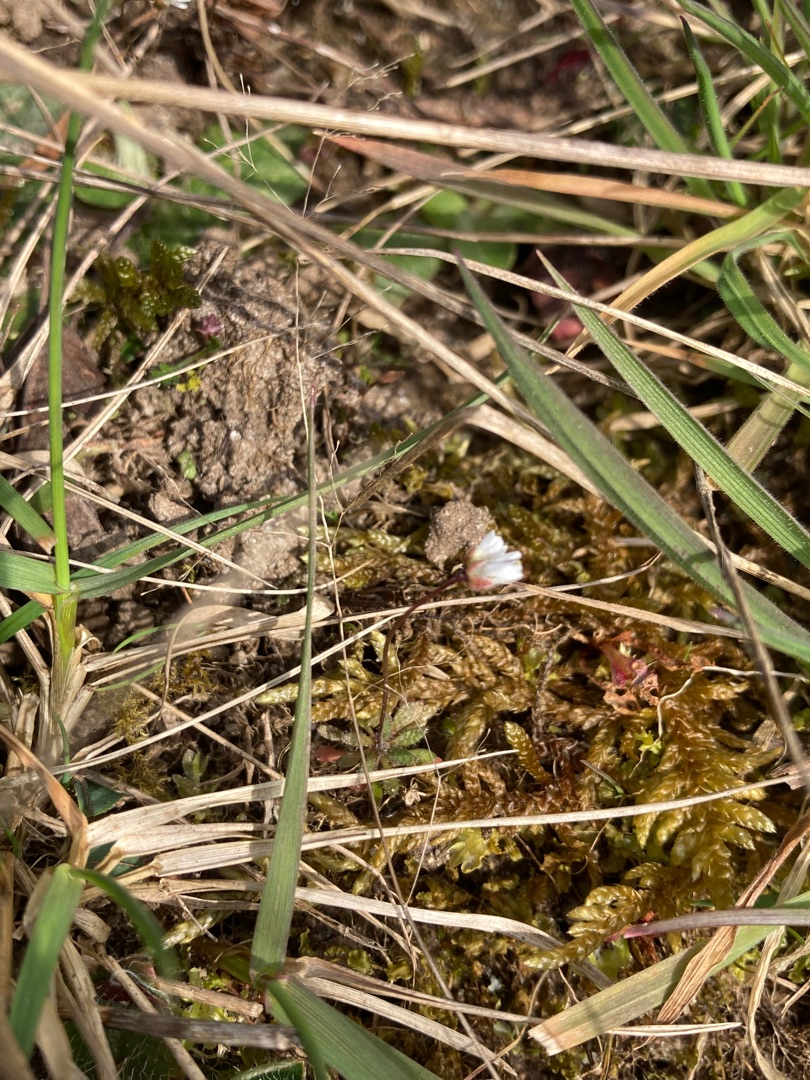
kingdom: Plantae
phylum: Tracheophyta
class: Magnoliopsida
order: Brassicales
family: Brassicaceae
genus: Draba
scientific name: Draba verna
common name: Vår-gæslingeblomst
